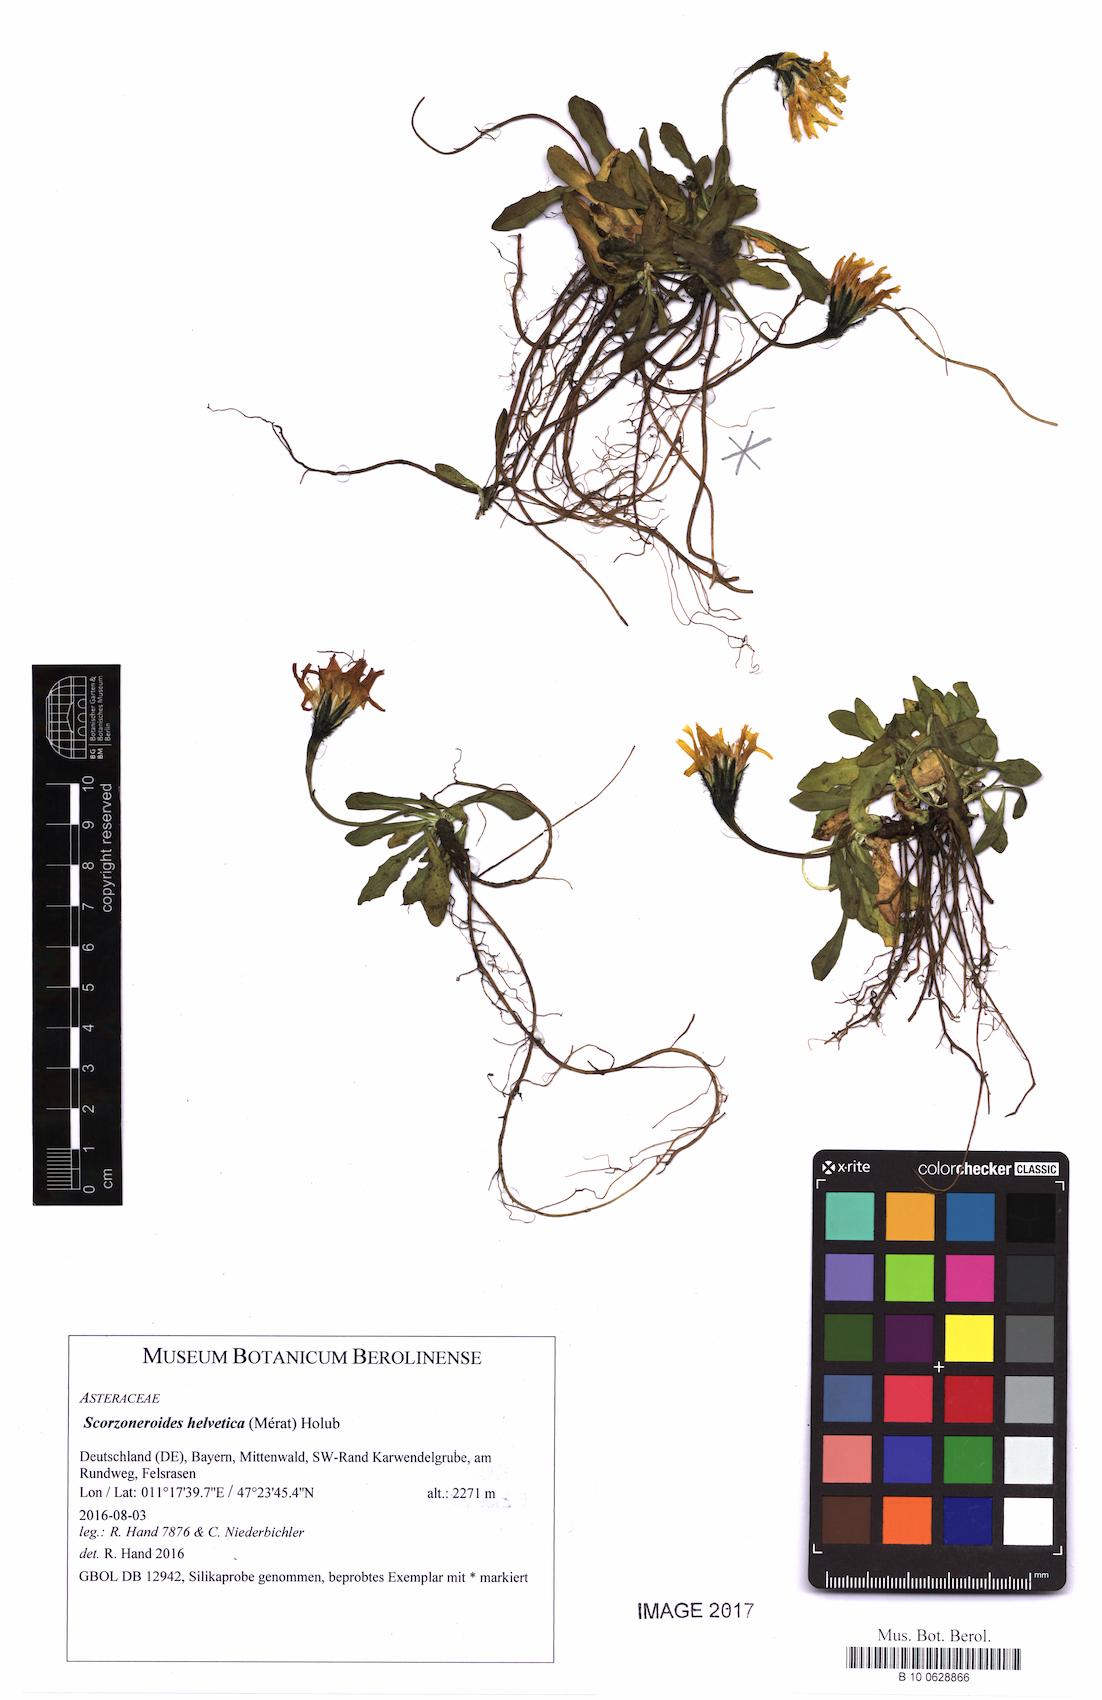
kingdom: Plantae
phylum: Tracheophyta
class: Magnoliopsida
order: Asterales
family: Asteraceae
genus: Scorzoneroides
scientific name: Scorzoneroides montana
